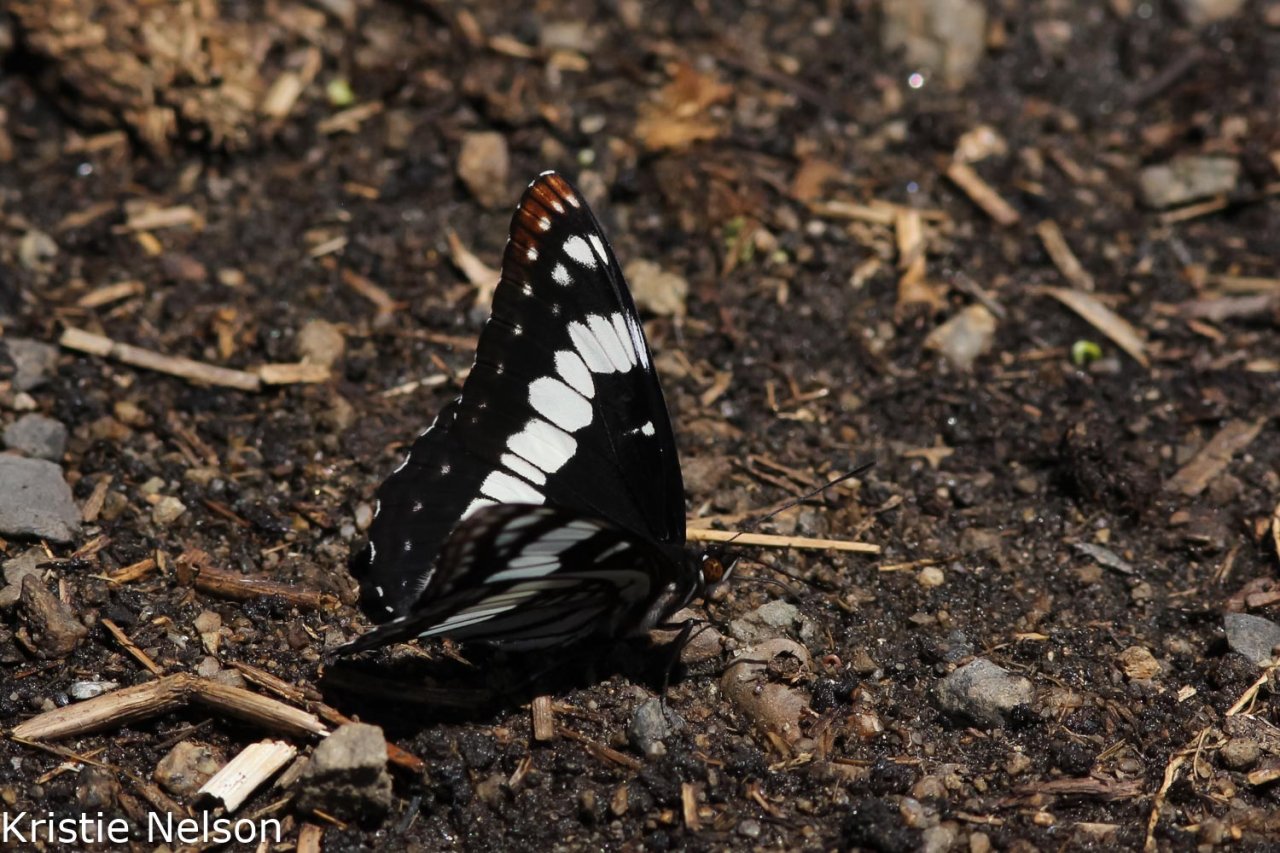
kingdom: Animalia
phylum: Arthropoda
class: Insecta
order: Lepidoptera
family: Nymphalidae
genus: Limenitis
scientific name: Limenitis weidemeyerii
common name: Weidemeyer's Admiral
